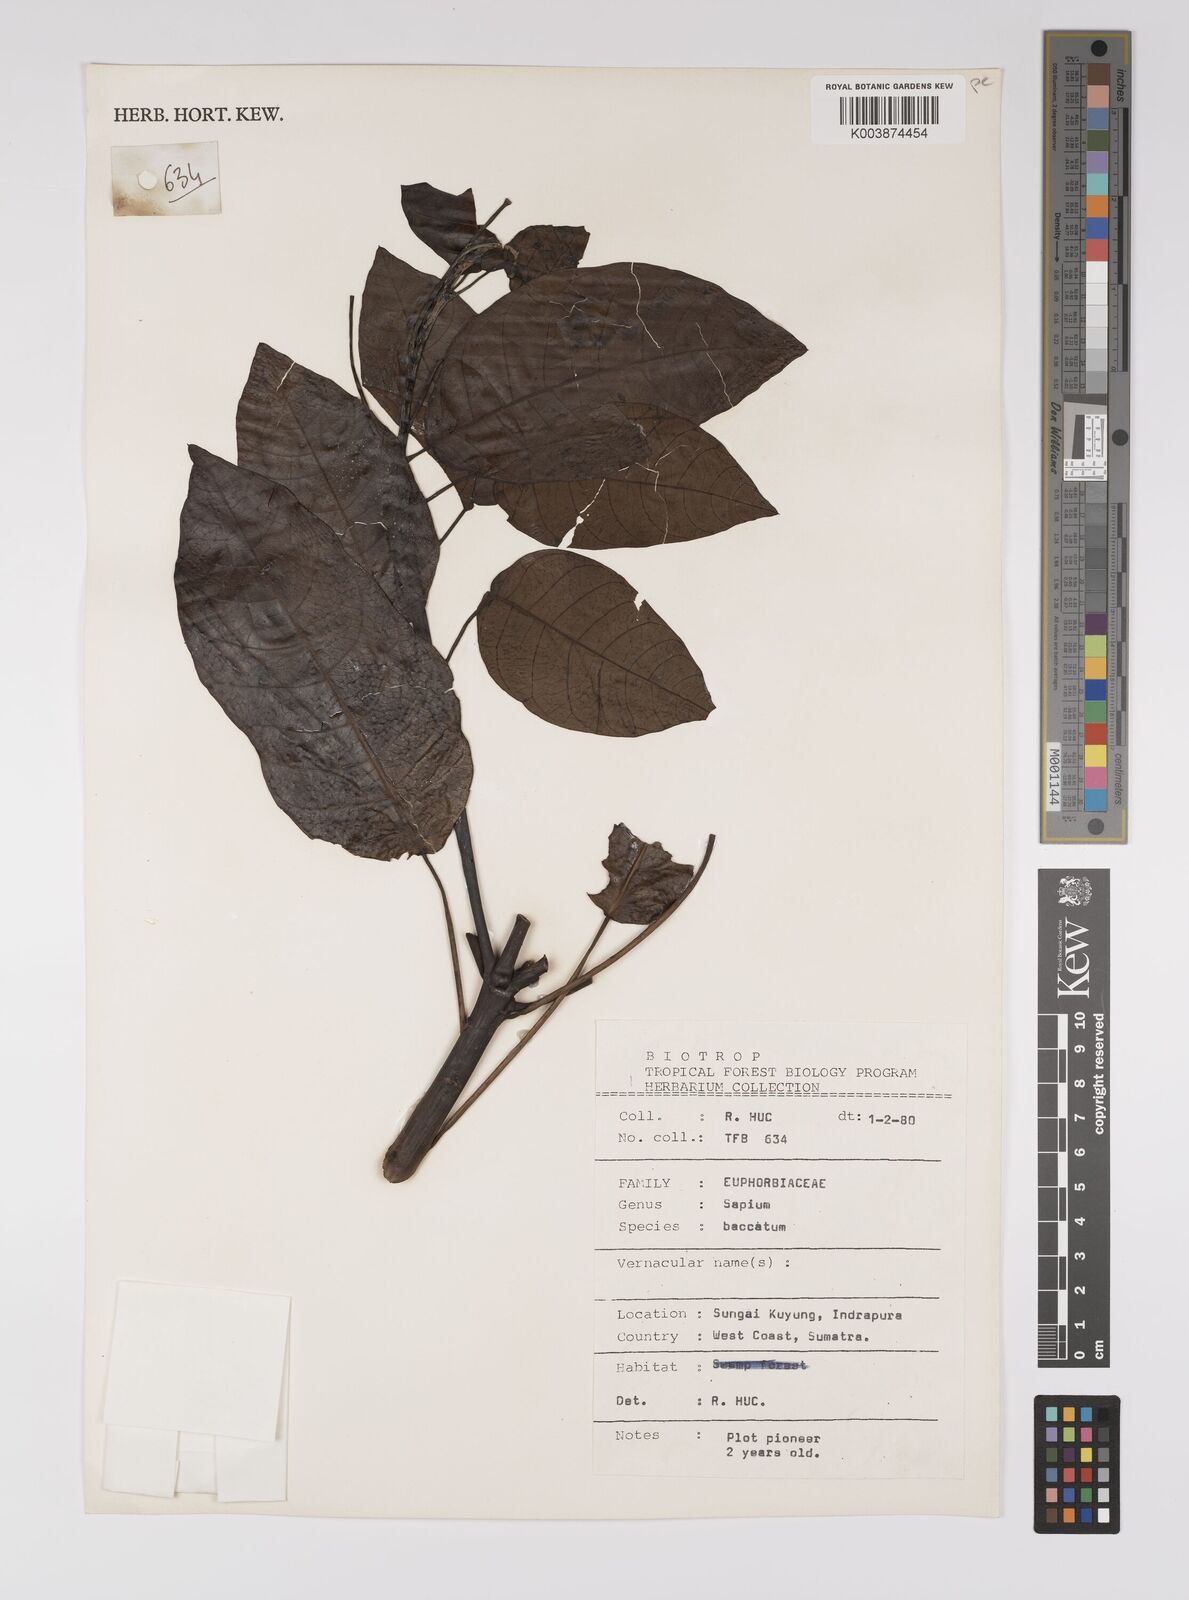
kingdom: Plantae
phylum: Tracheophyta
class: Magnoliopsida
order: Malpighiales
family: Euphorbiaceae
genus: Balakata
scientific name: Balakata baccata
